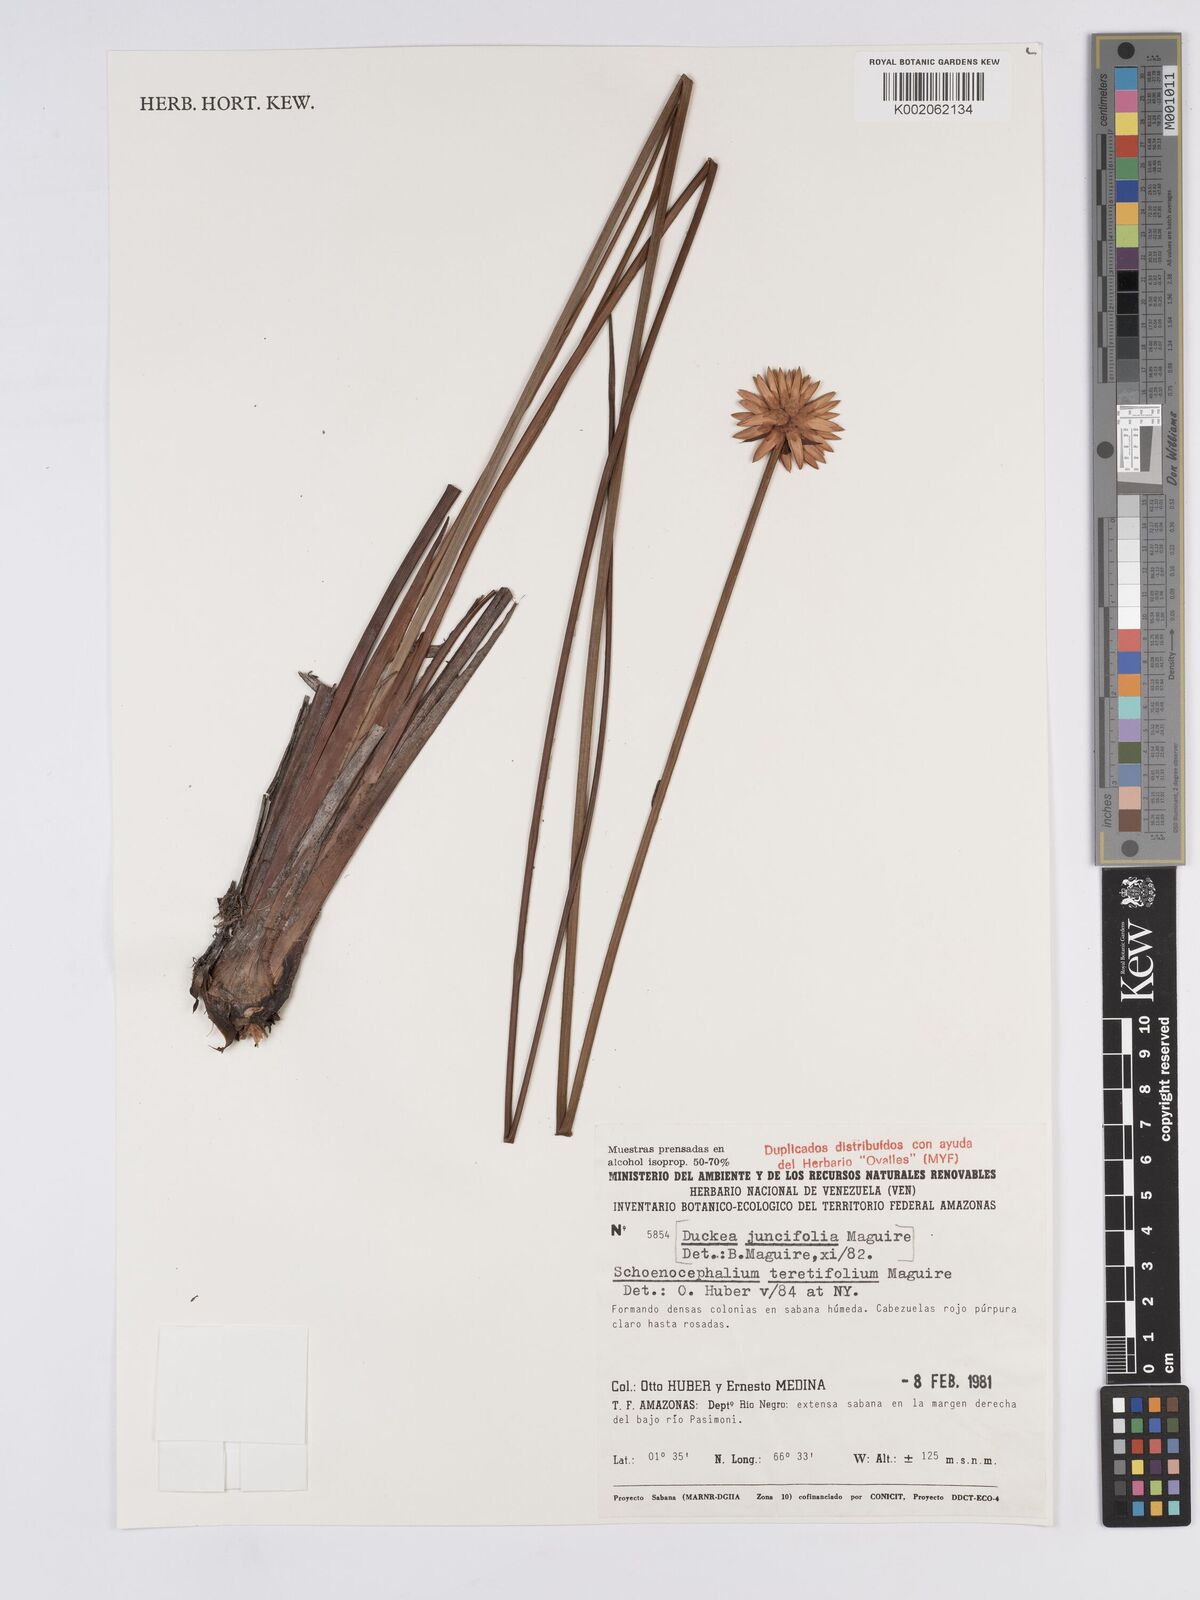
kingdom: Plantae
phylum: Tracheophyta
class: Liliopsida
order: Poales
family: Rapateaceae
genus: Schoenocephalium
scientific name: Schoenocephalium teretifolium
